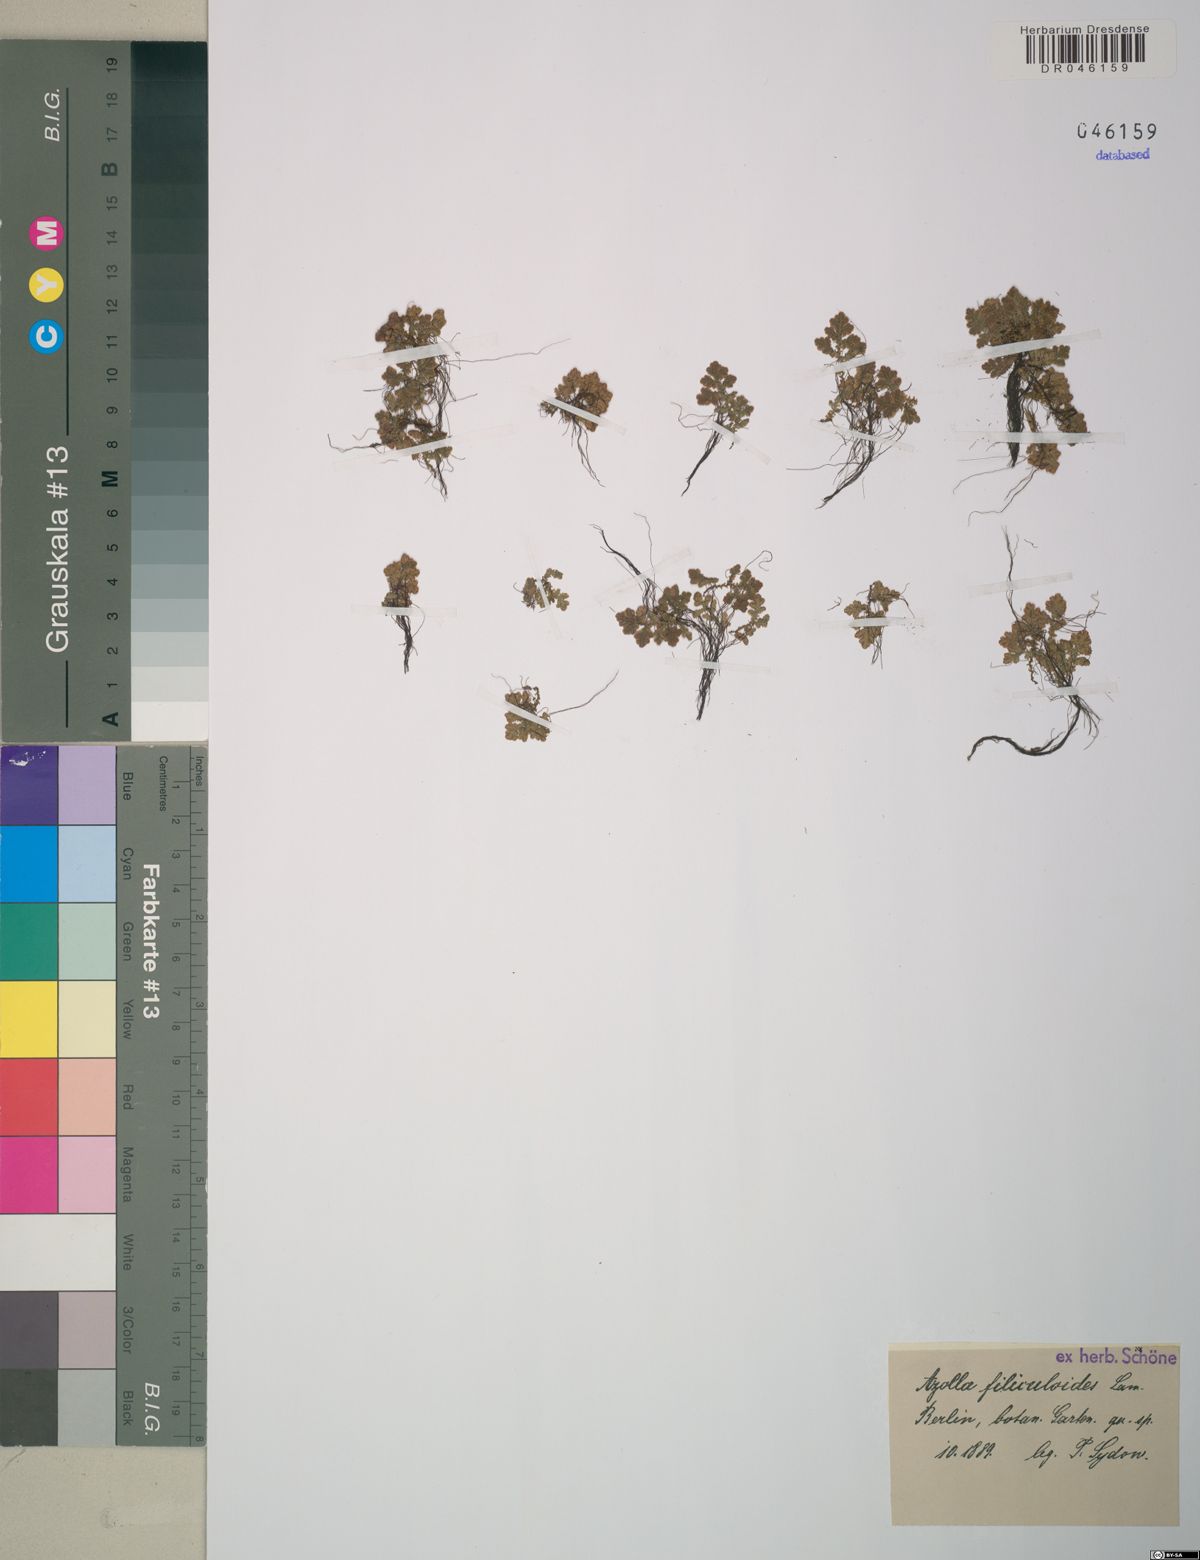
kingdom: Plantae
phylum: Tracheophyta
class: Polypodiopsida
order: Salviniales
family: Salviniaceae
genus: Azolla
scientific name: Azolla filiculoides
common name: Water fern
